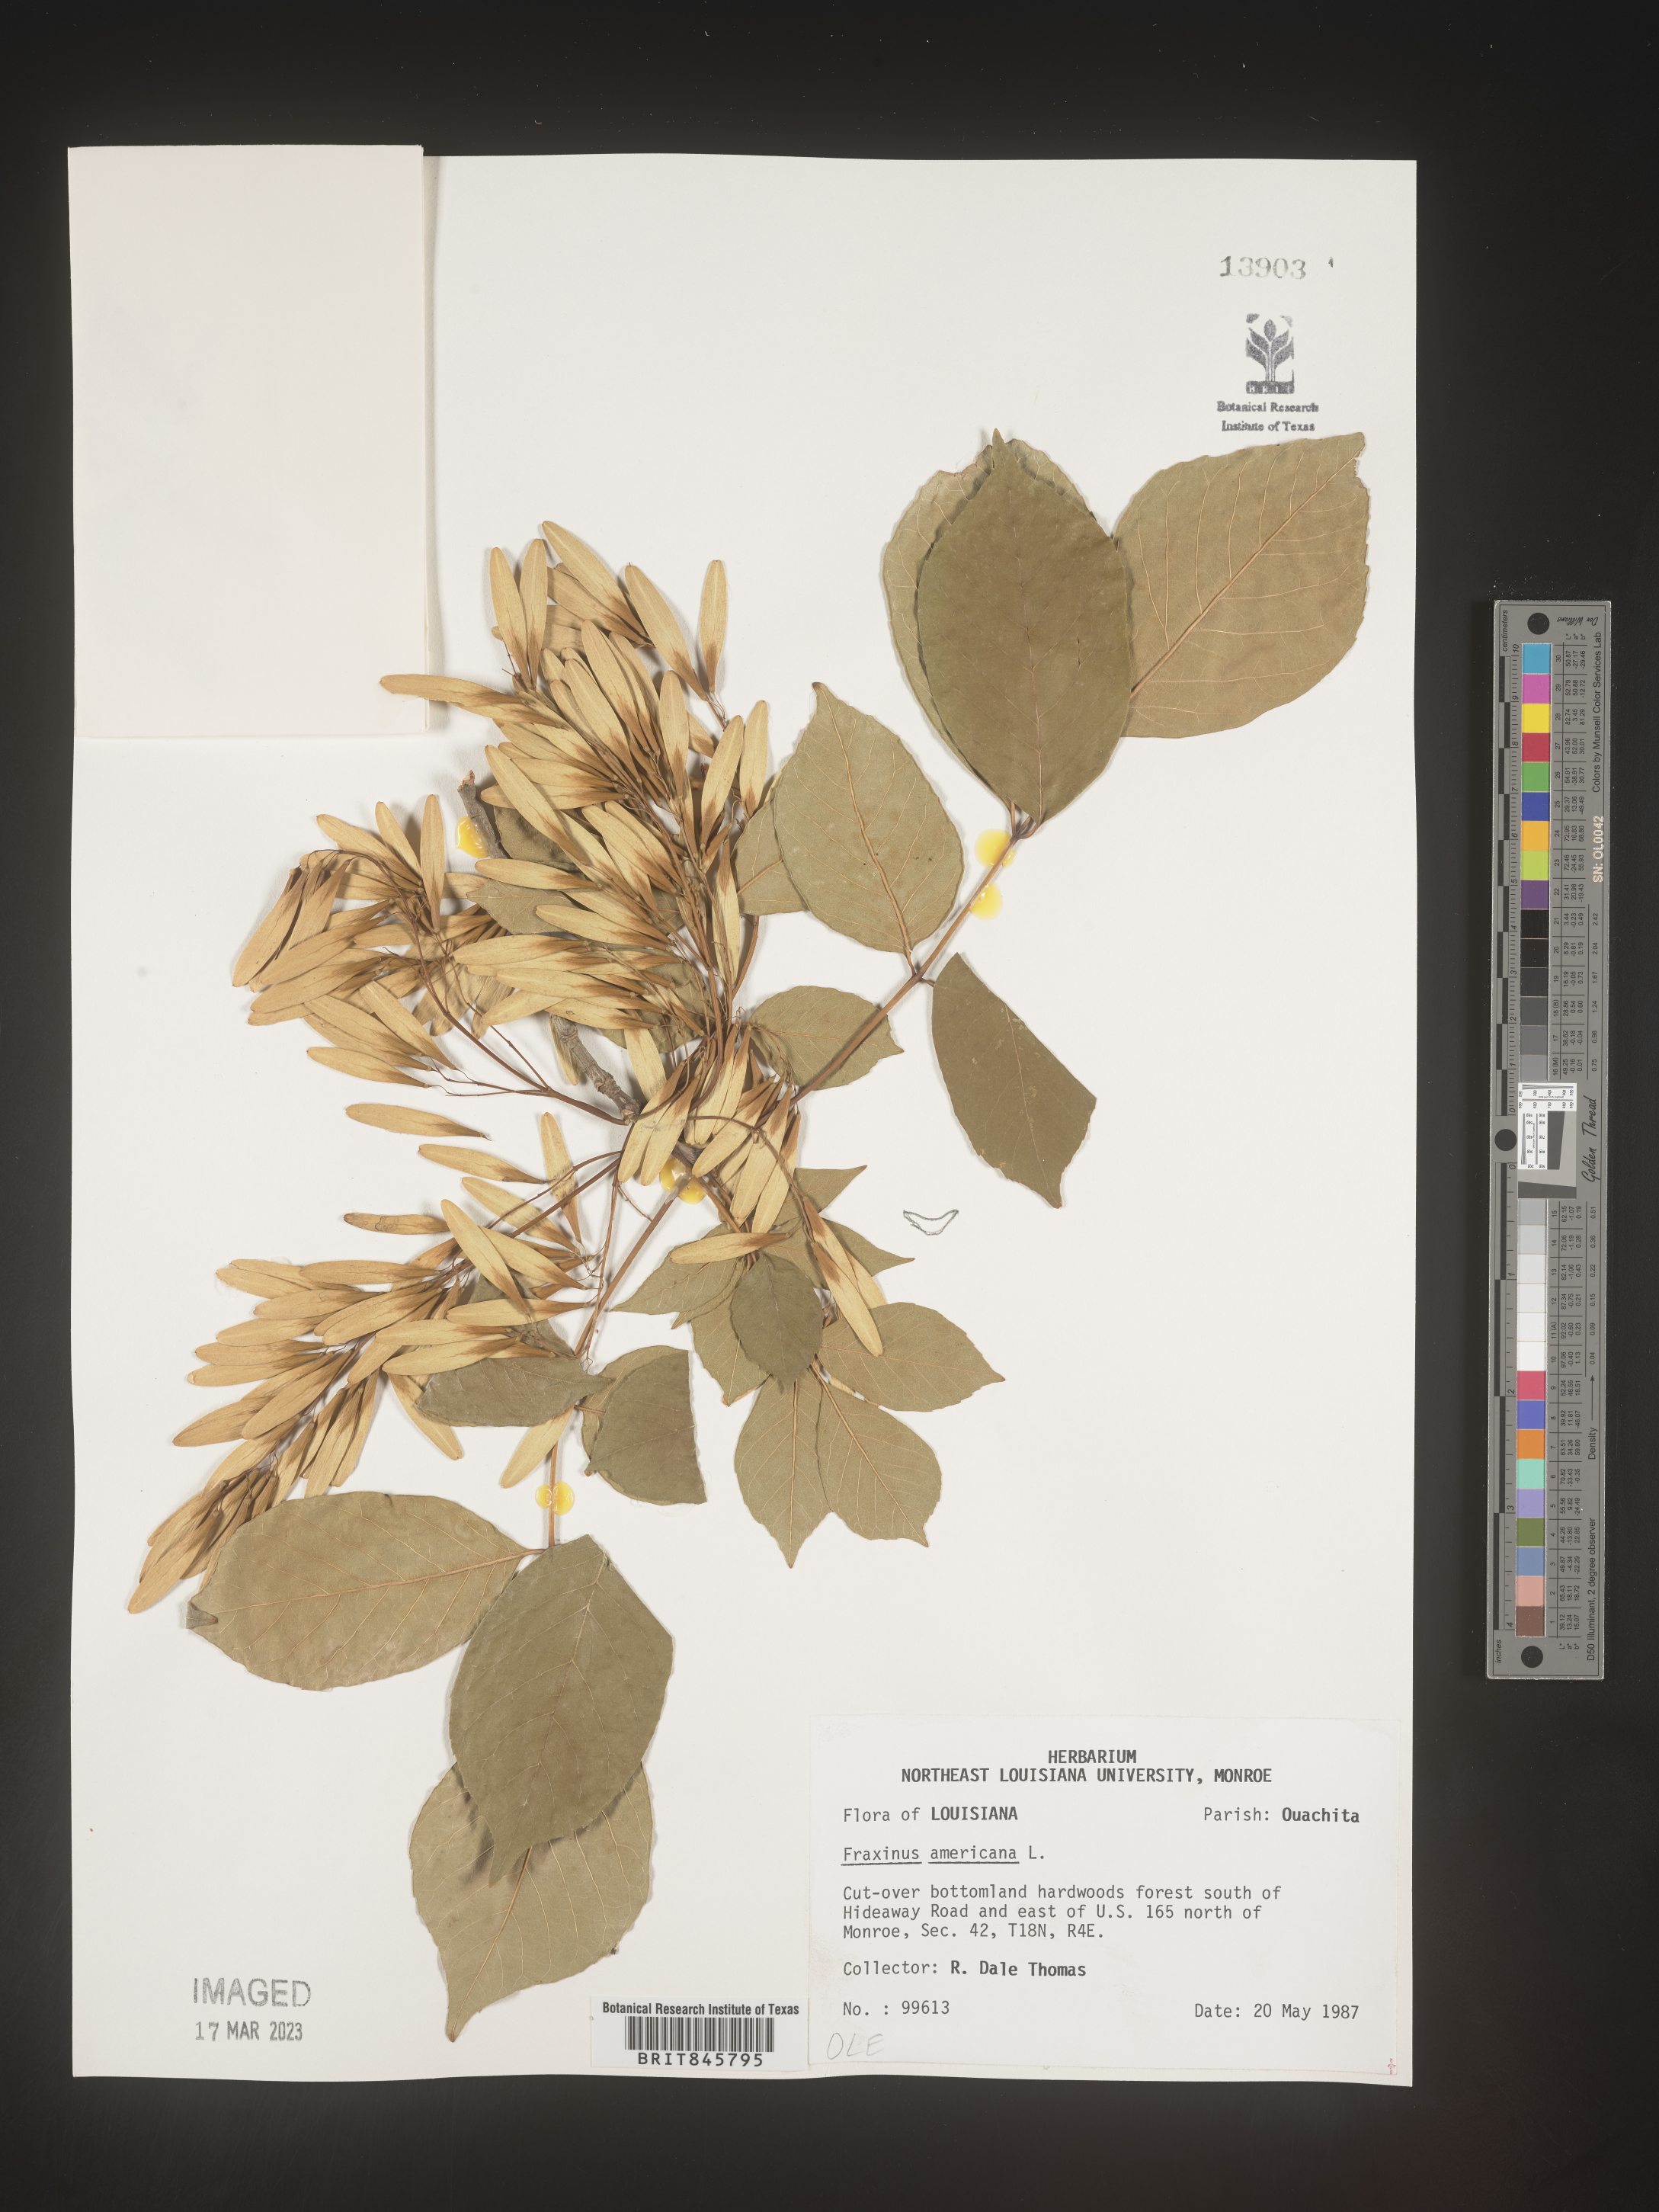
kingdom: Plantae
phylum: Tracheophyta
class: Magnoliopsida
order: Lamiales
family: Oleaceae
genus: Fraxinus
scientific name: Fraxinus americana
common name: White ash
